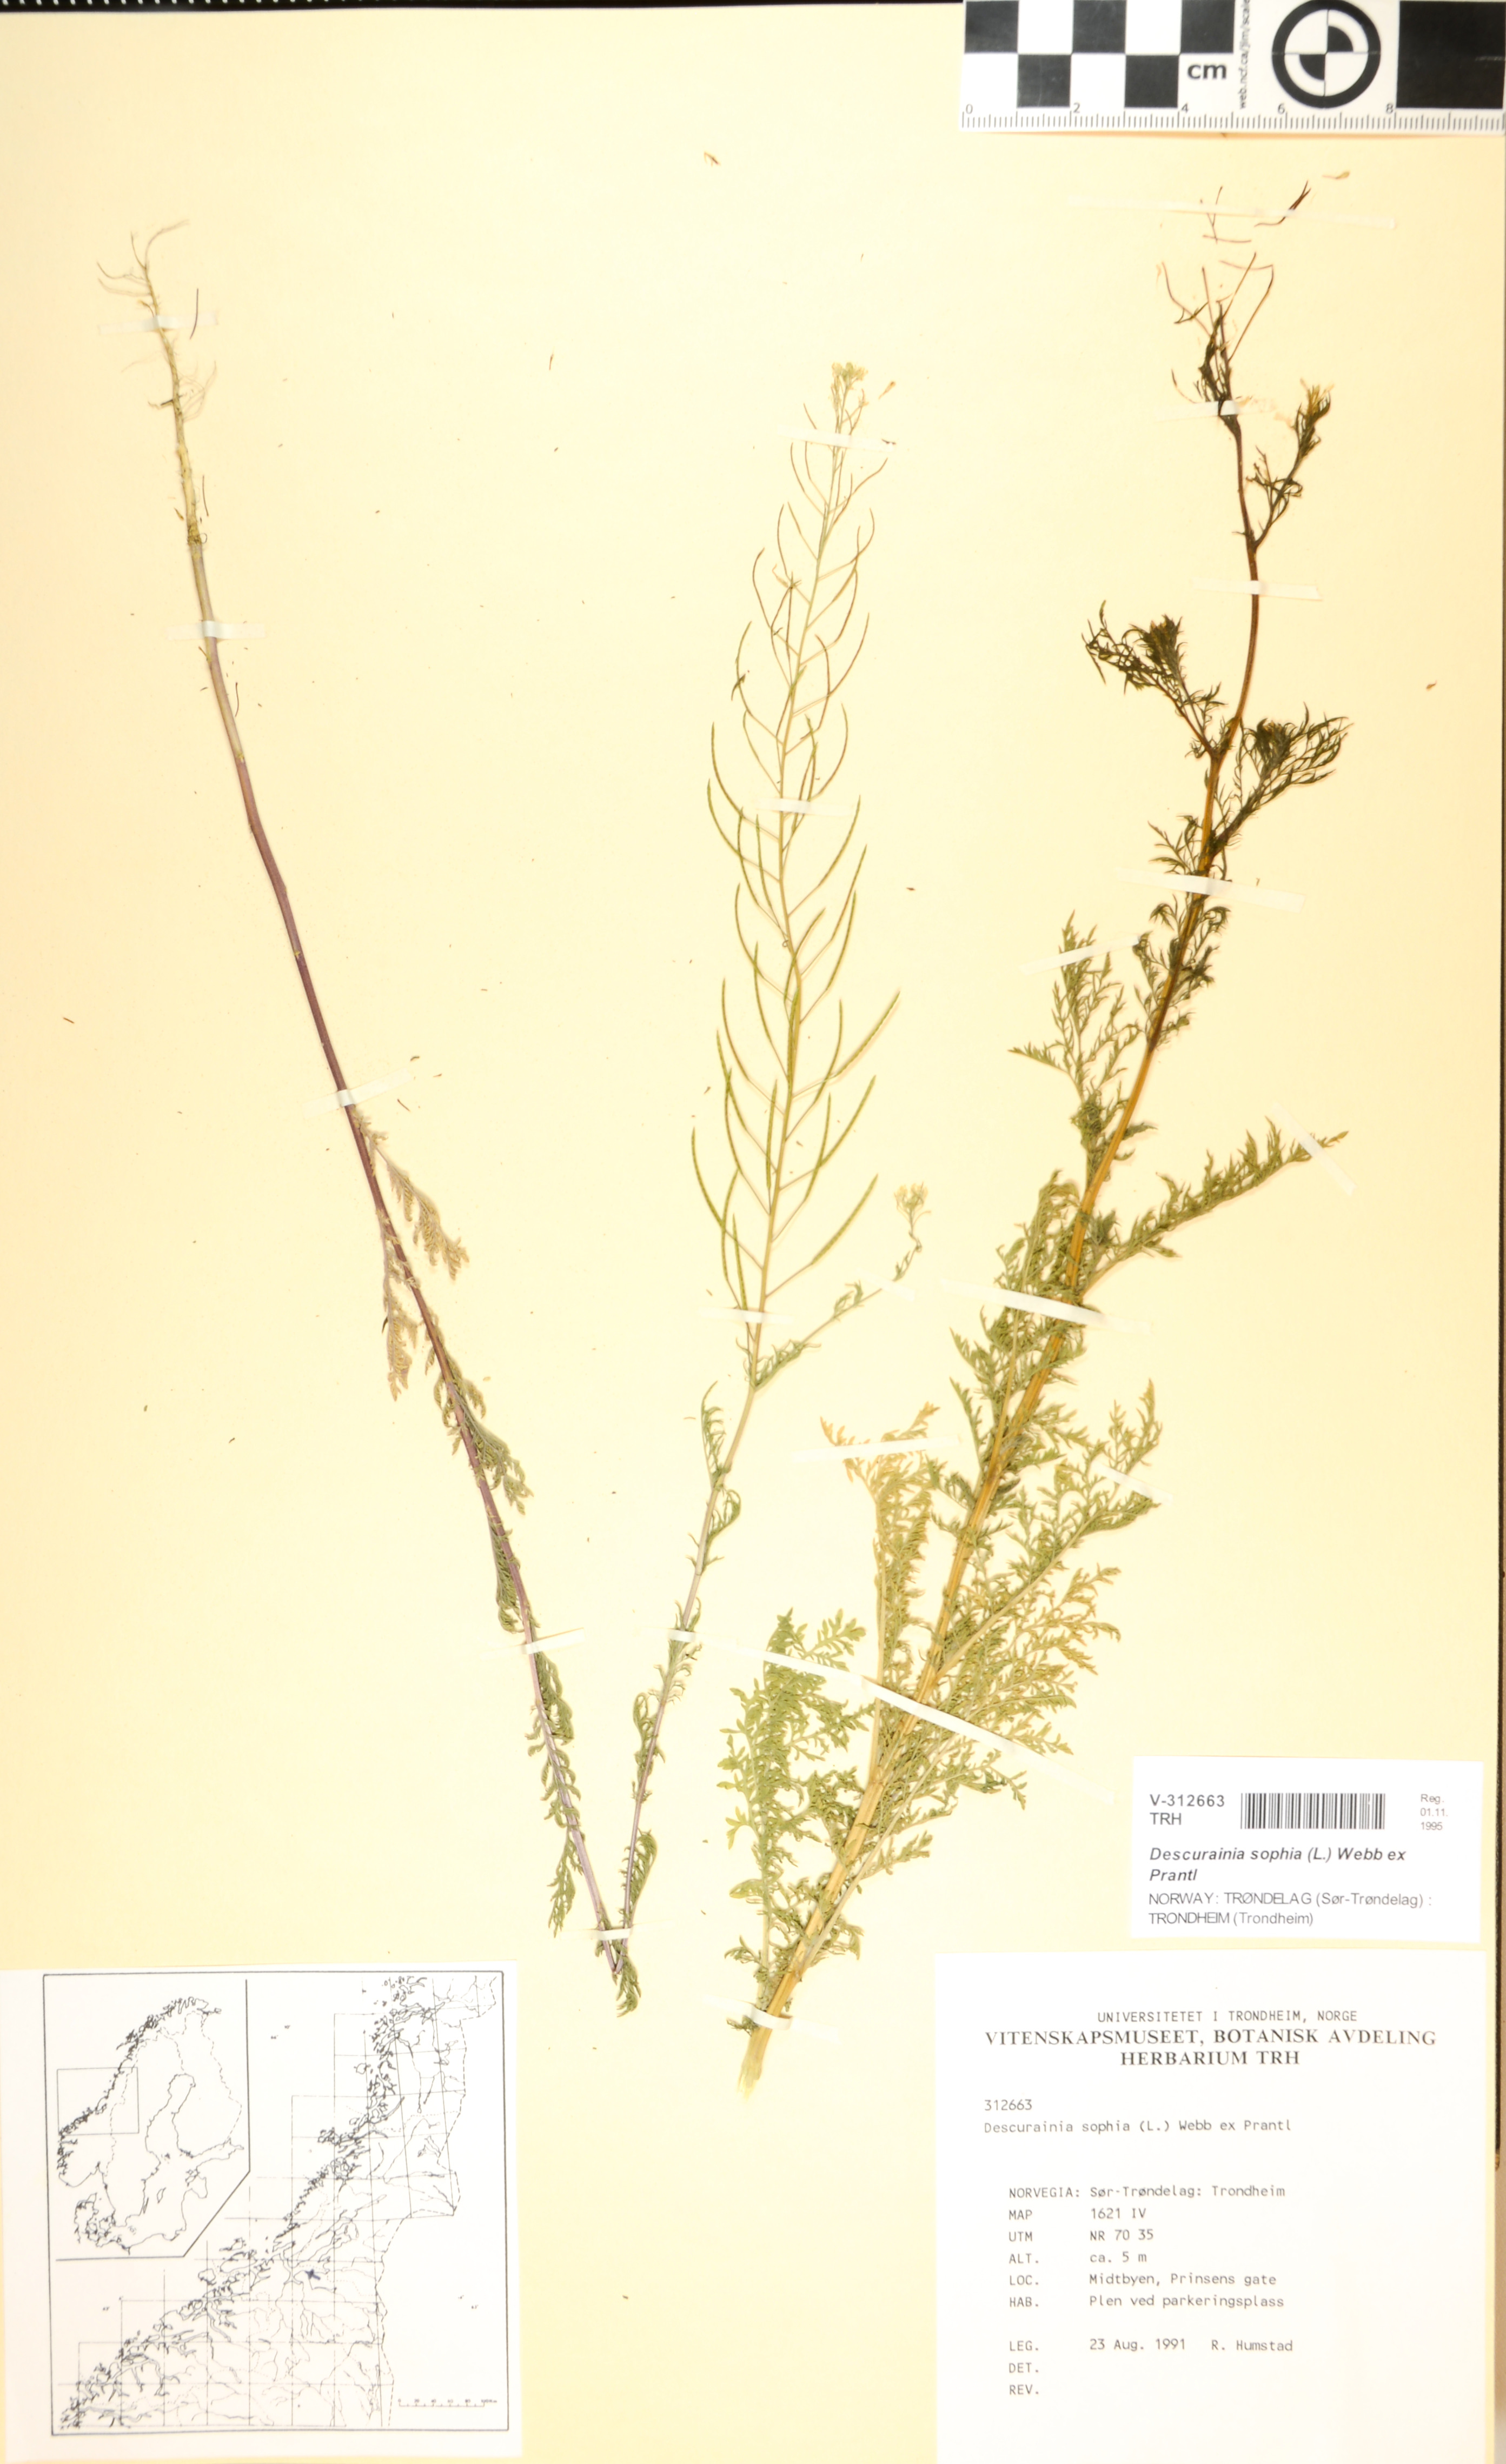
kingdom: Plantae
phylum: Tracheophyta
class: Magnoliopsida
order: Brassicales
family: Brassicaceae
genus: Descurainia
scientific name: Descurainia sophia
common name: Flixweed
